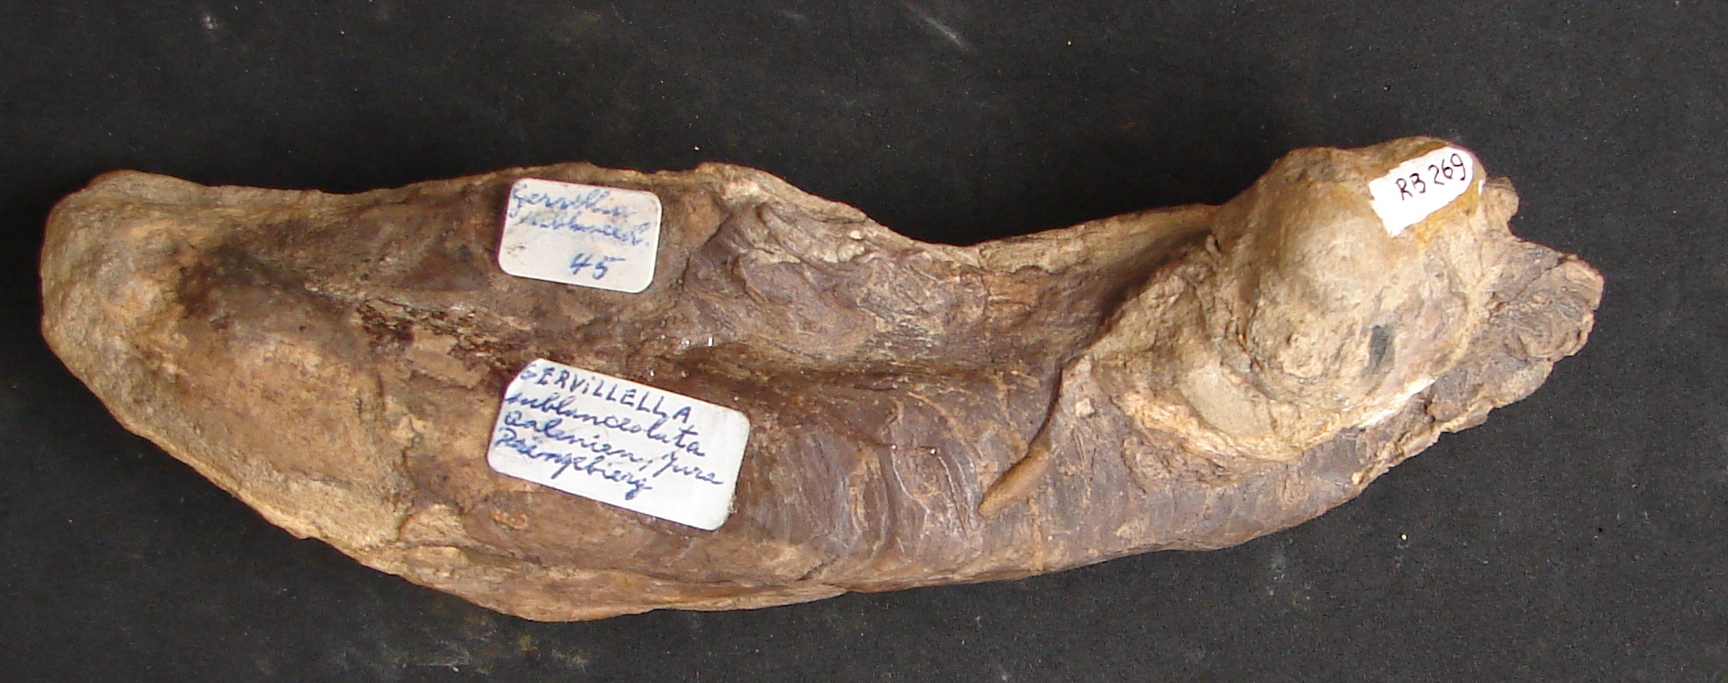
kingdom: Animalia
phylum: Mollusca
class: Bivalvia
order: Ostreida
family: Bakevelliidae
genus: Gervillella
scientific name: Gervillella Avicula sublanceolata
